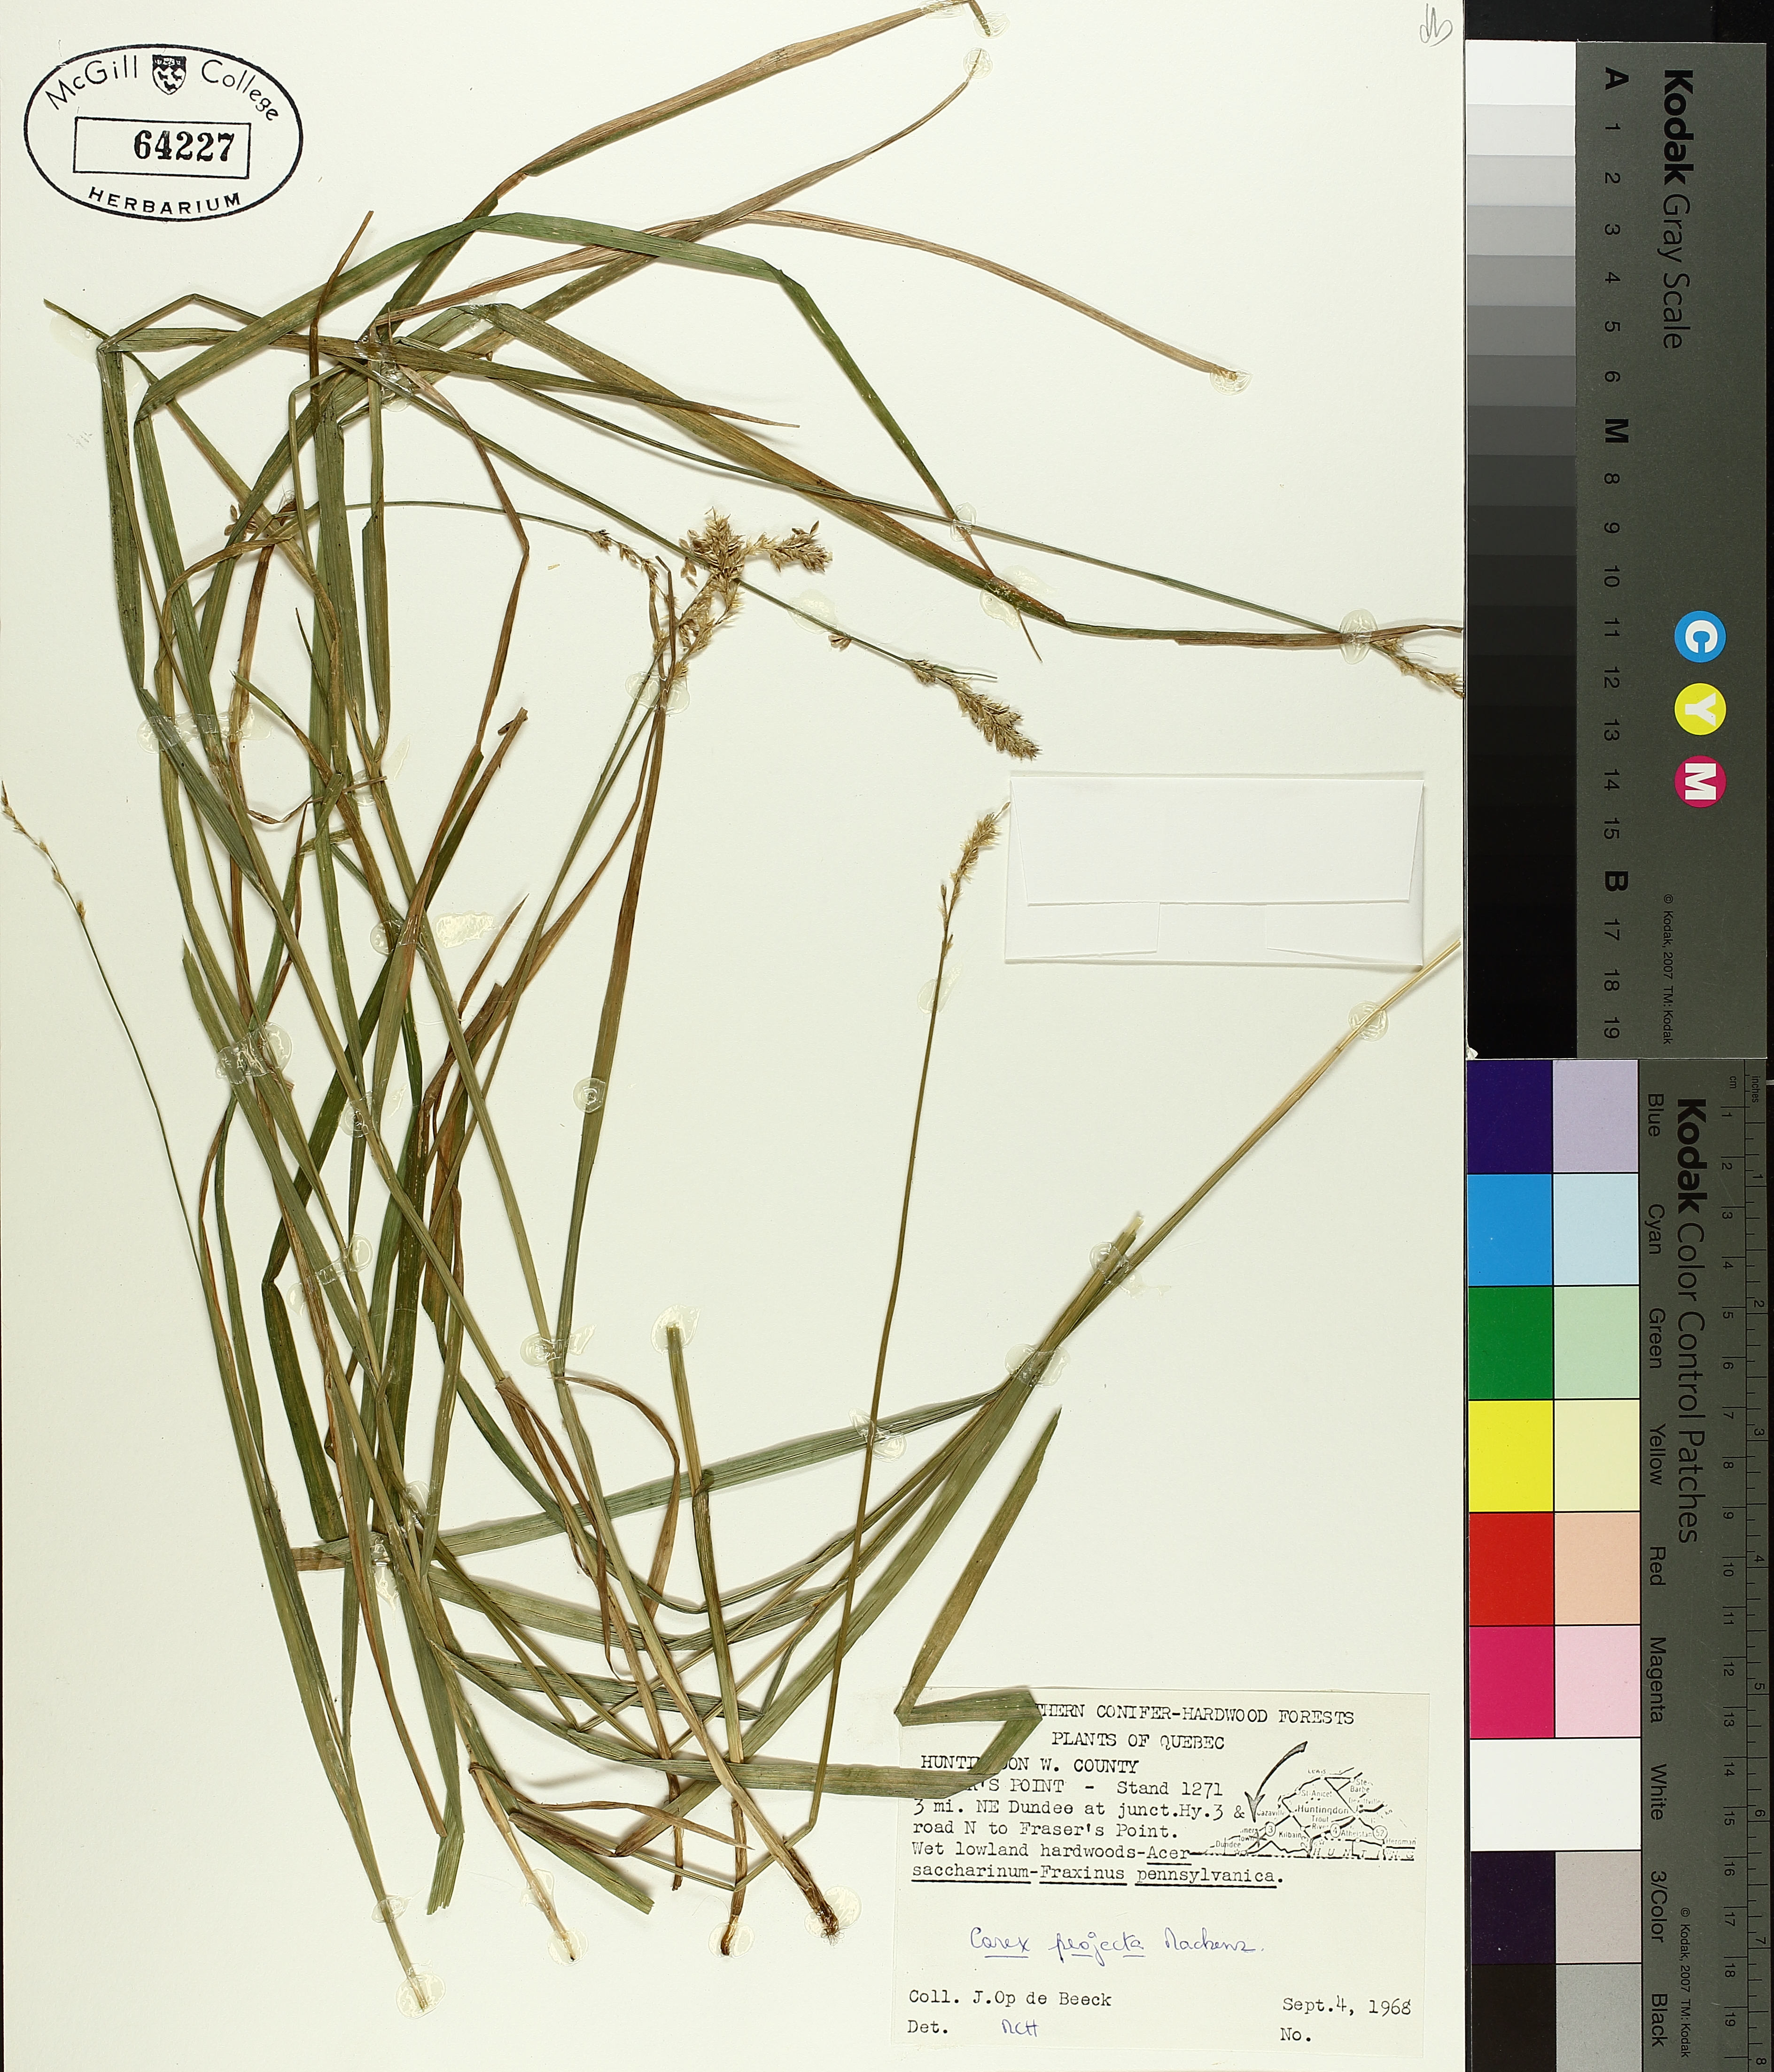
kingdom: Plantae
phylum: Tracheophyta
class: Liliopsida
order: Poales
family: Cyperaceae
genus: Carex
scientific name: Carex projecta
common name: Loose-headed oval sedge
